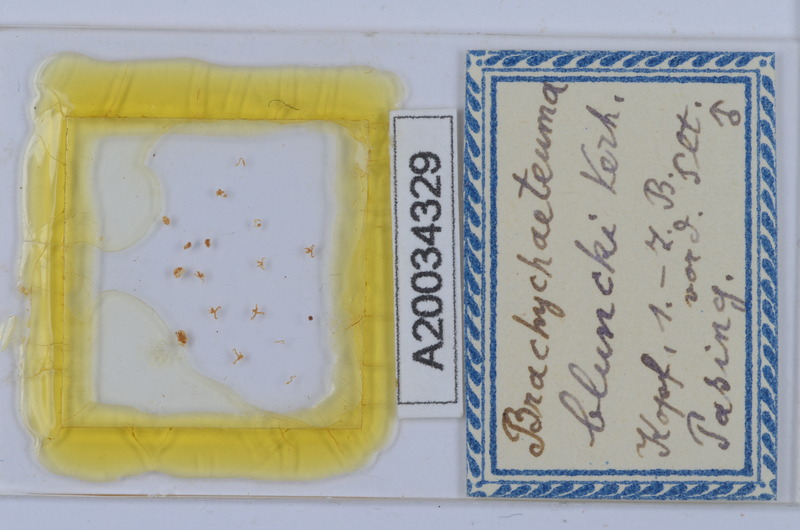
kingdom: Animalia
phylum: Arthropoda
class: Diplopoda
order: Chordeumatida
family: Brachychaeteumatidae
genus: Brachychaeteuma
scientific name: Brachychaeteuma bradeae
